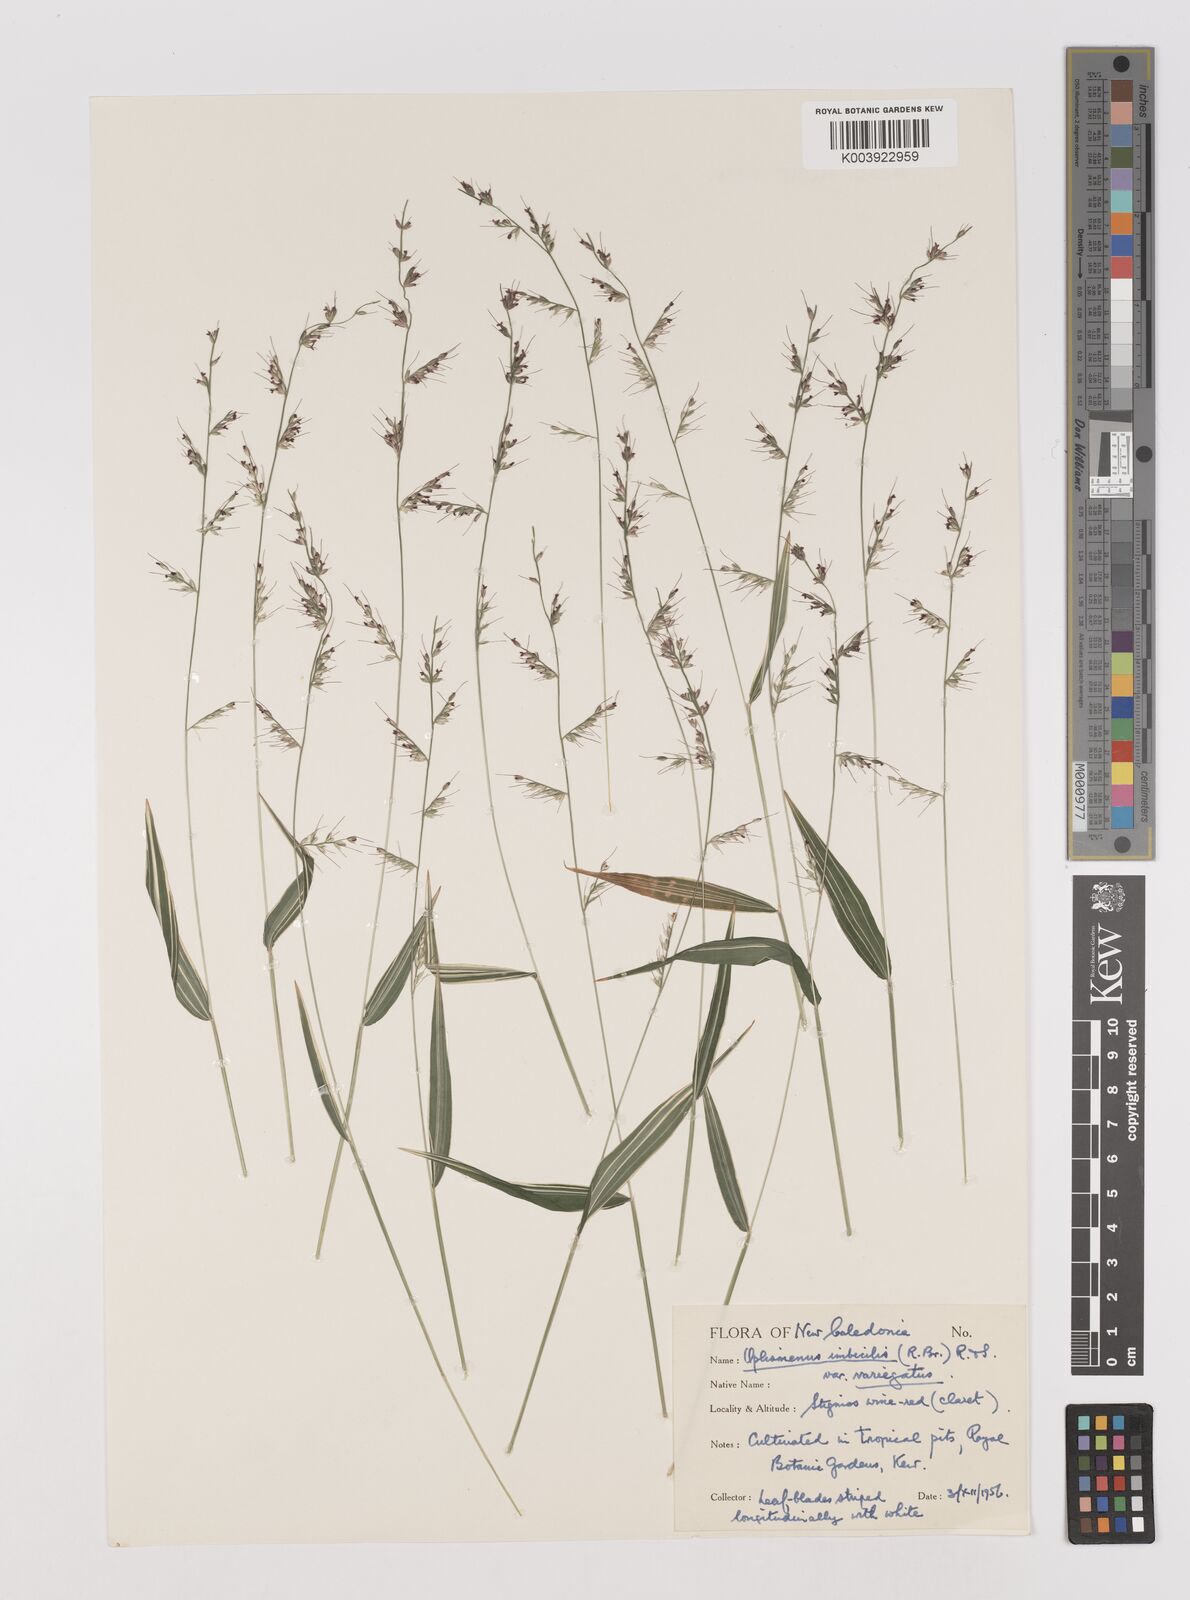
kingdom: Plantae
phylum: Tracheophyta
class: Liliopsida
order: Poales
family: Poaceae
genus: Oplismenus
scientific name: Oplismenus hirtellus
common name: Basketgrass
